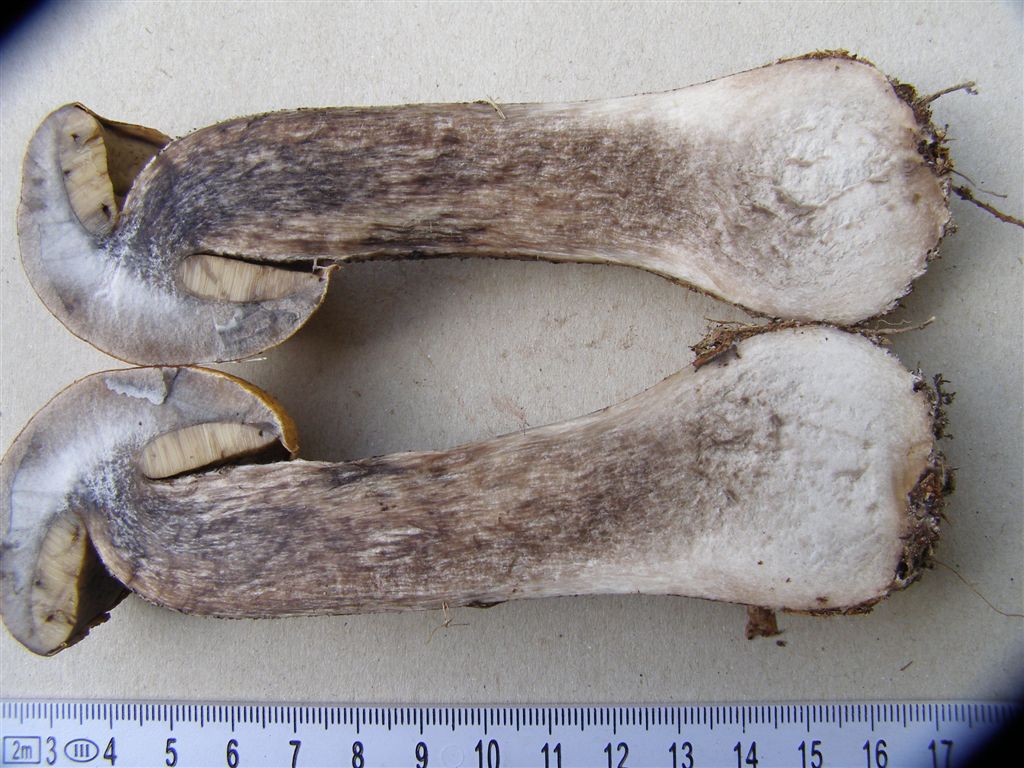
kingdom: Fungi
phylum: Basidiomycota
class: Agaricomycetes
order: Boletales
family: Boletaceae
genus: Leccinum
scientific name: Leccinum versipelle
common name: orange skælrørhat
